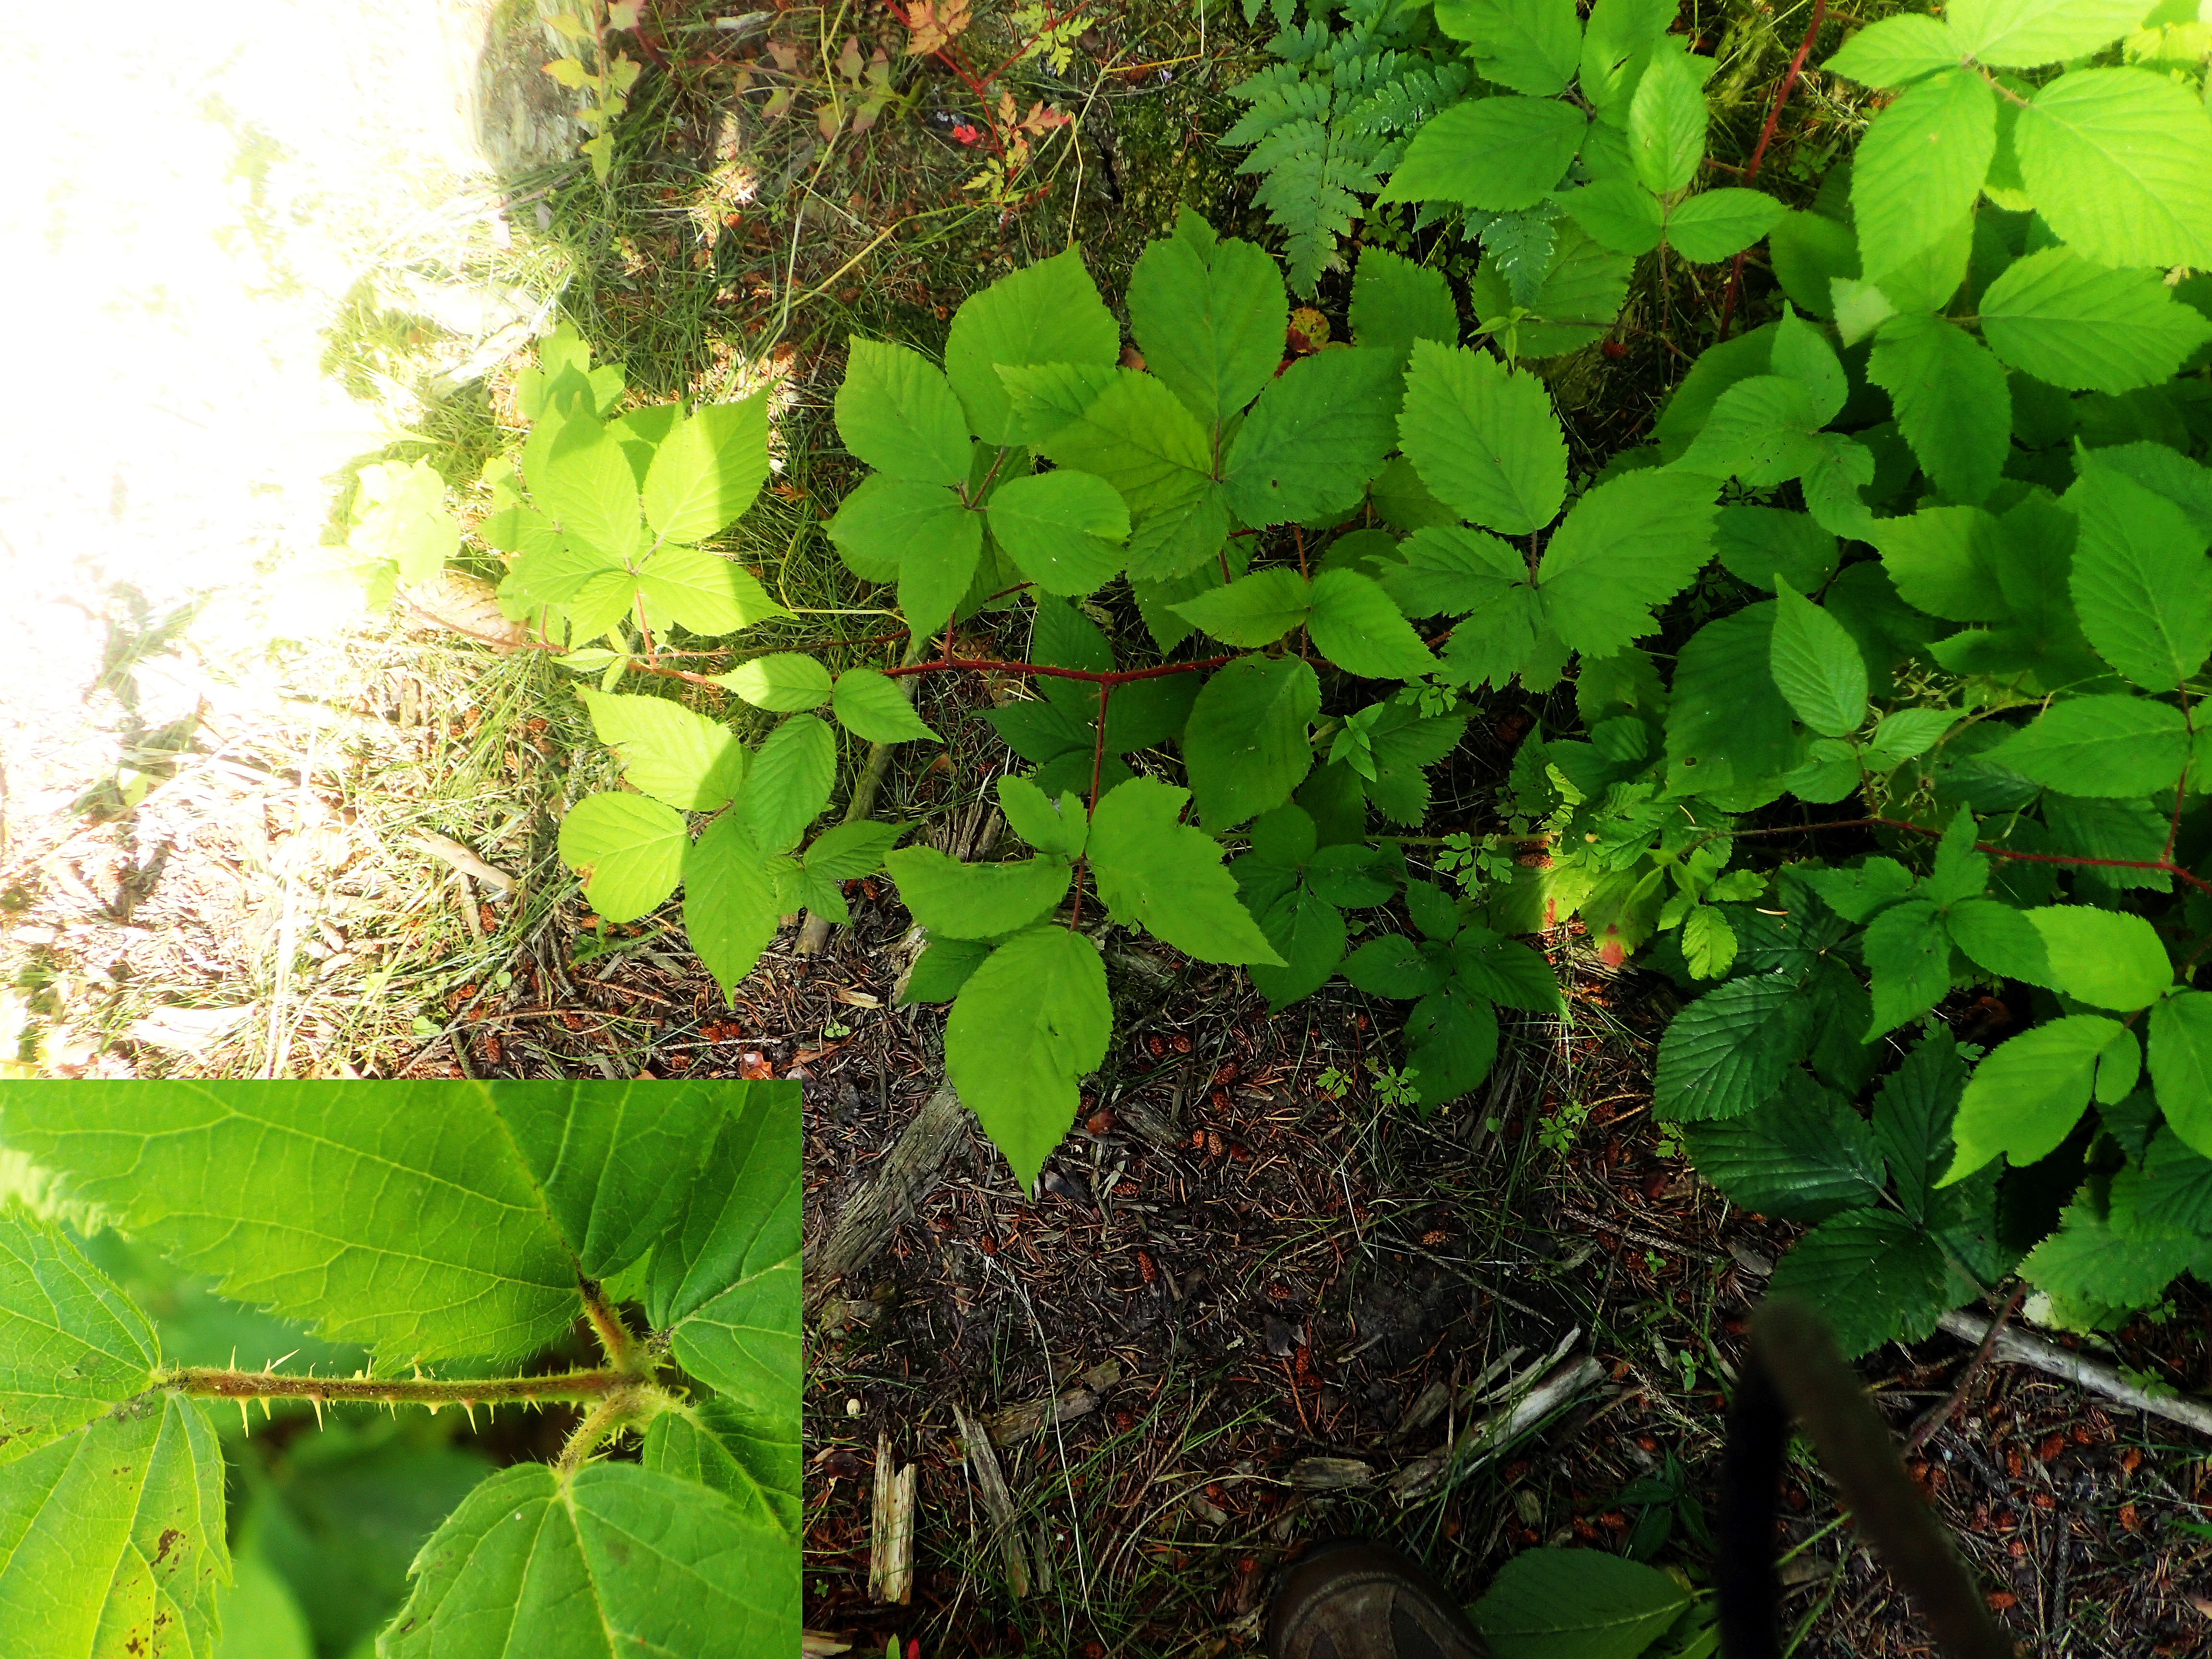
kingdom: Plantae
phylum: Tracheophyta
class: Magnoliopsida
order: Rosales
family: Rosaceae
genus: Rubus
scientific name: Rubus pallidus
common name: Blegblomstret brombær
